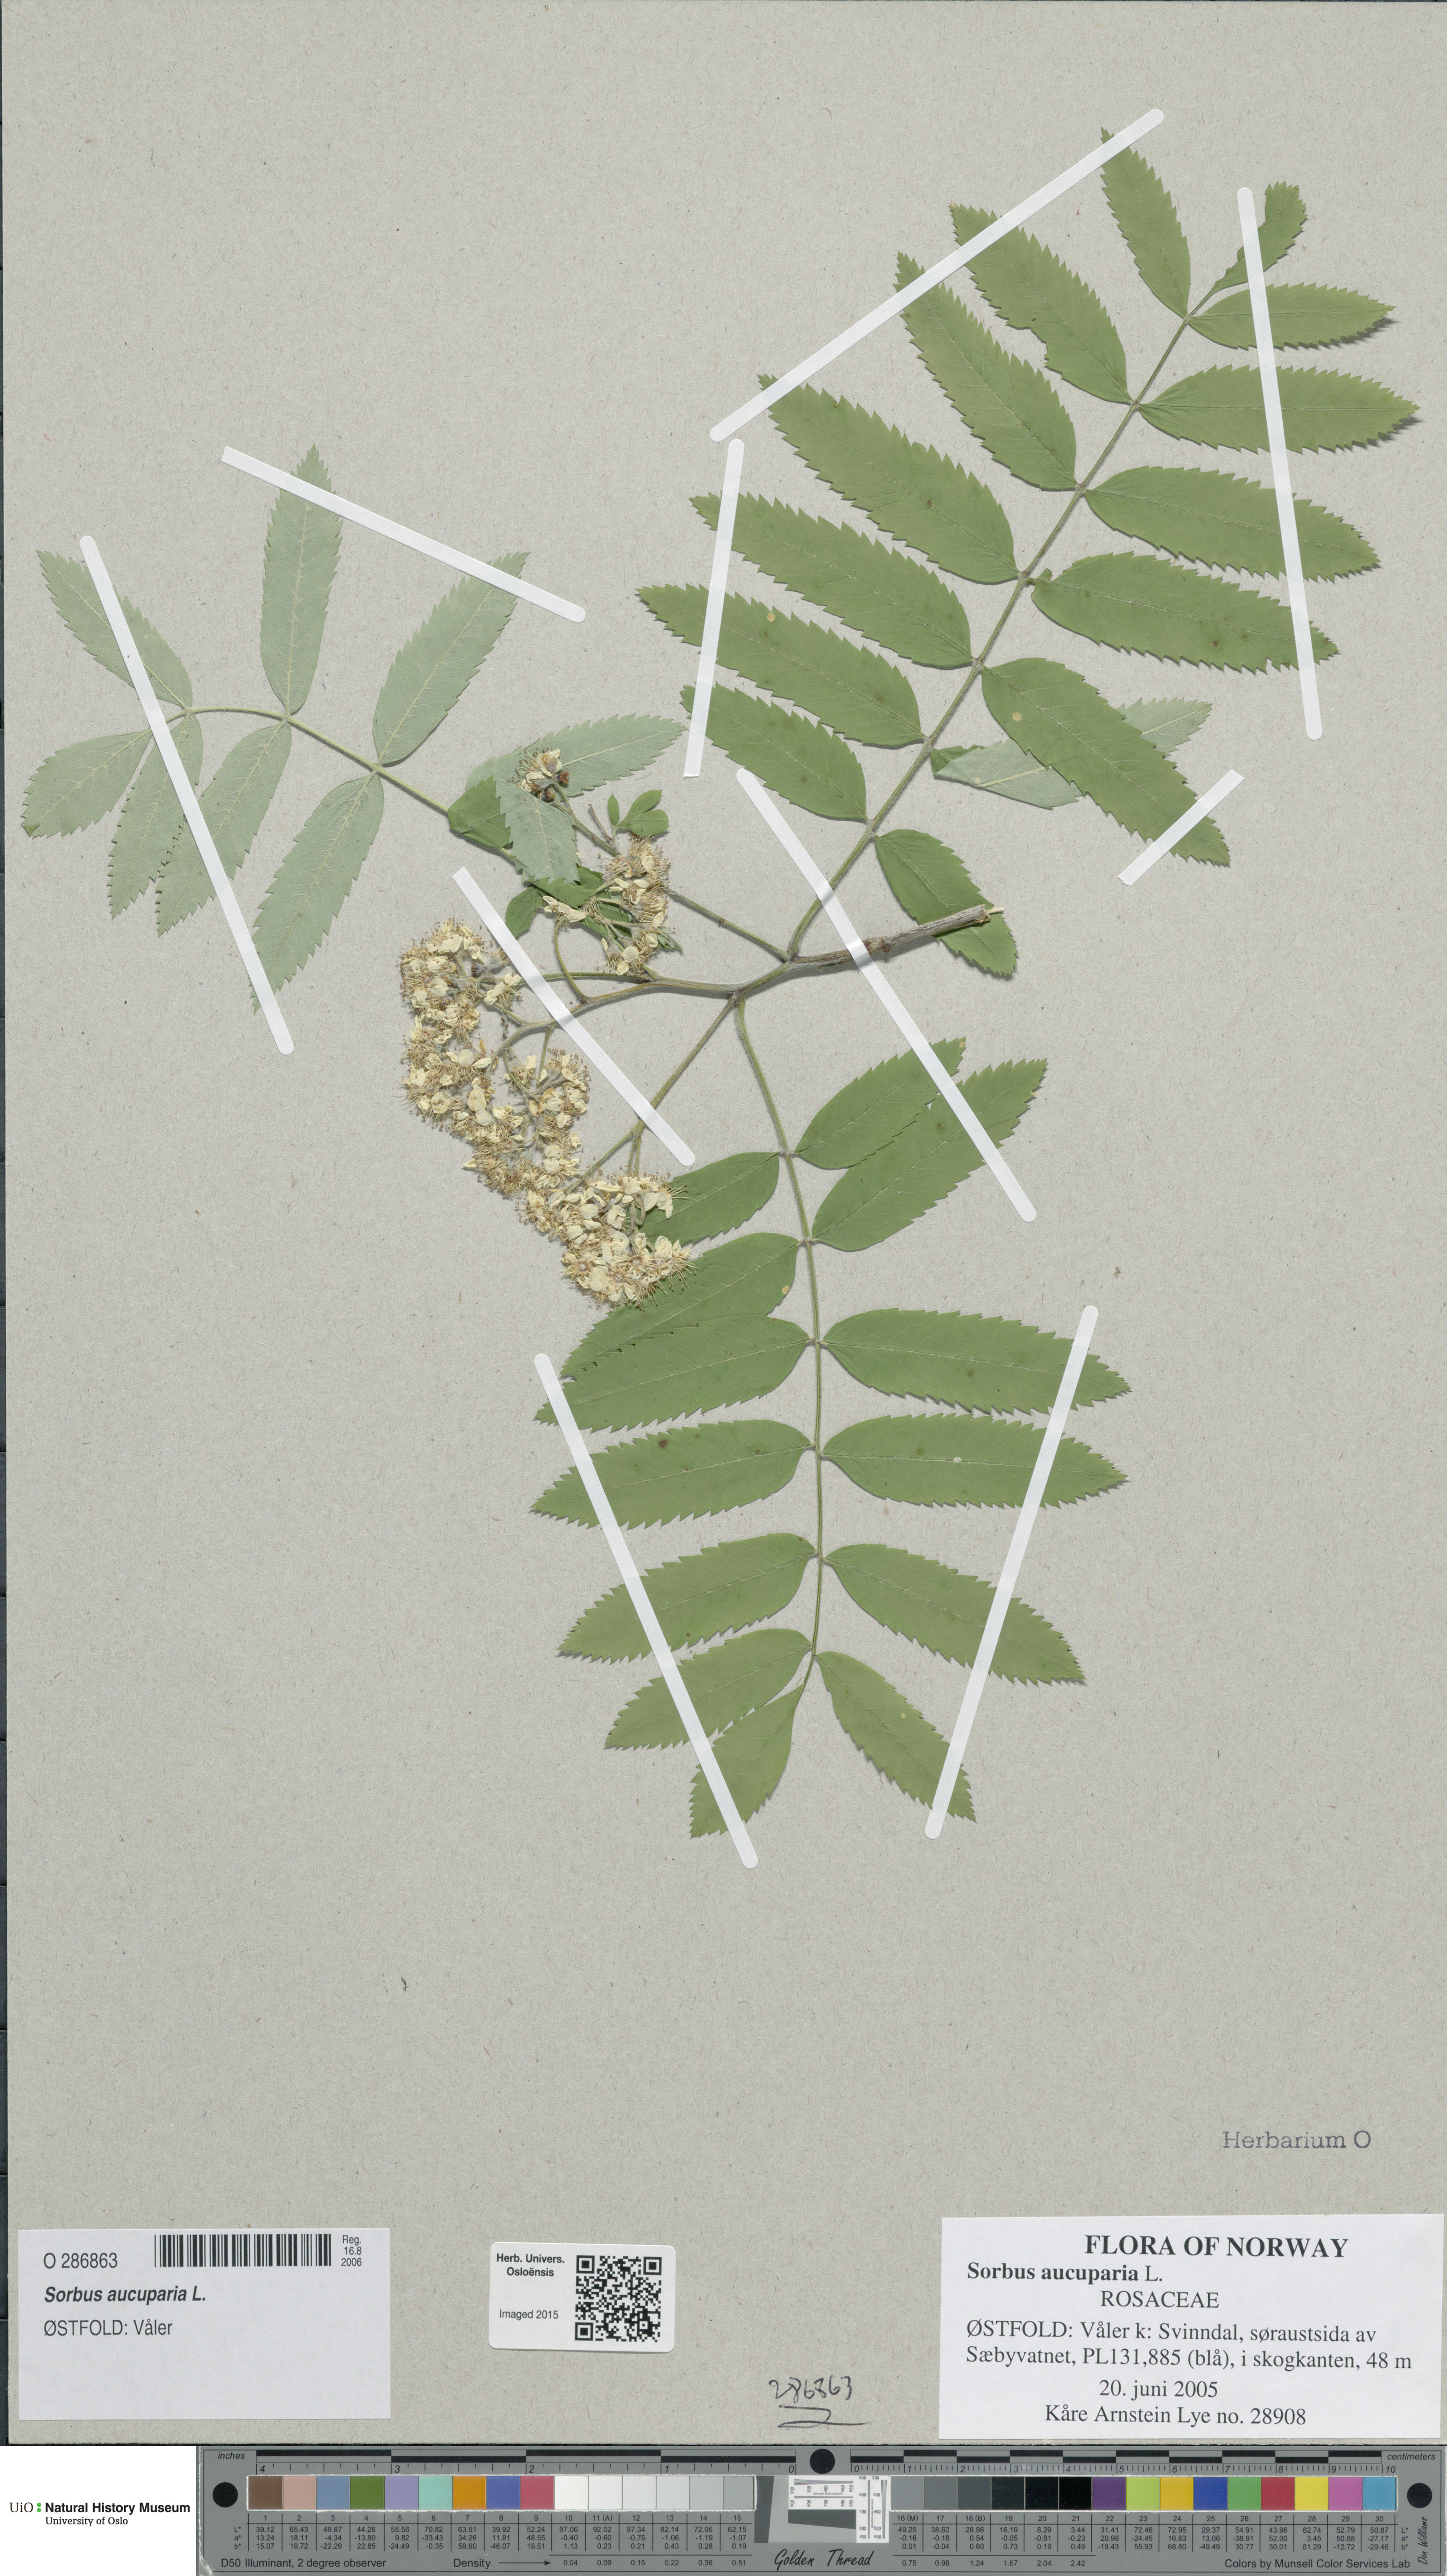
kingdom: Plantae
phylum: Tracheophyta
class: Magnoliopsida
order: Rosales
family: Rosaceae
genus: Sorbus
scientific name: Sorbus aucuparia
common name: Rowan
